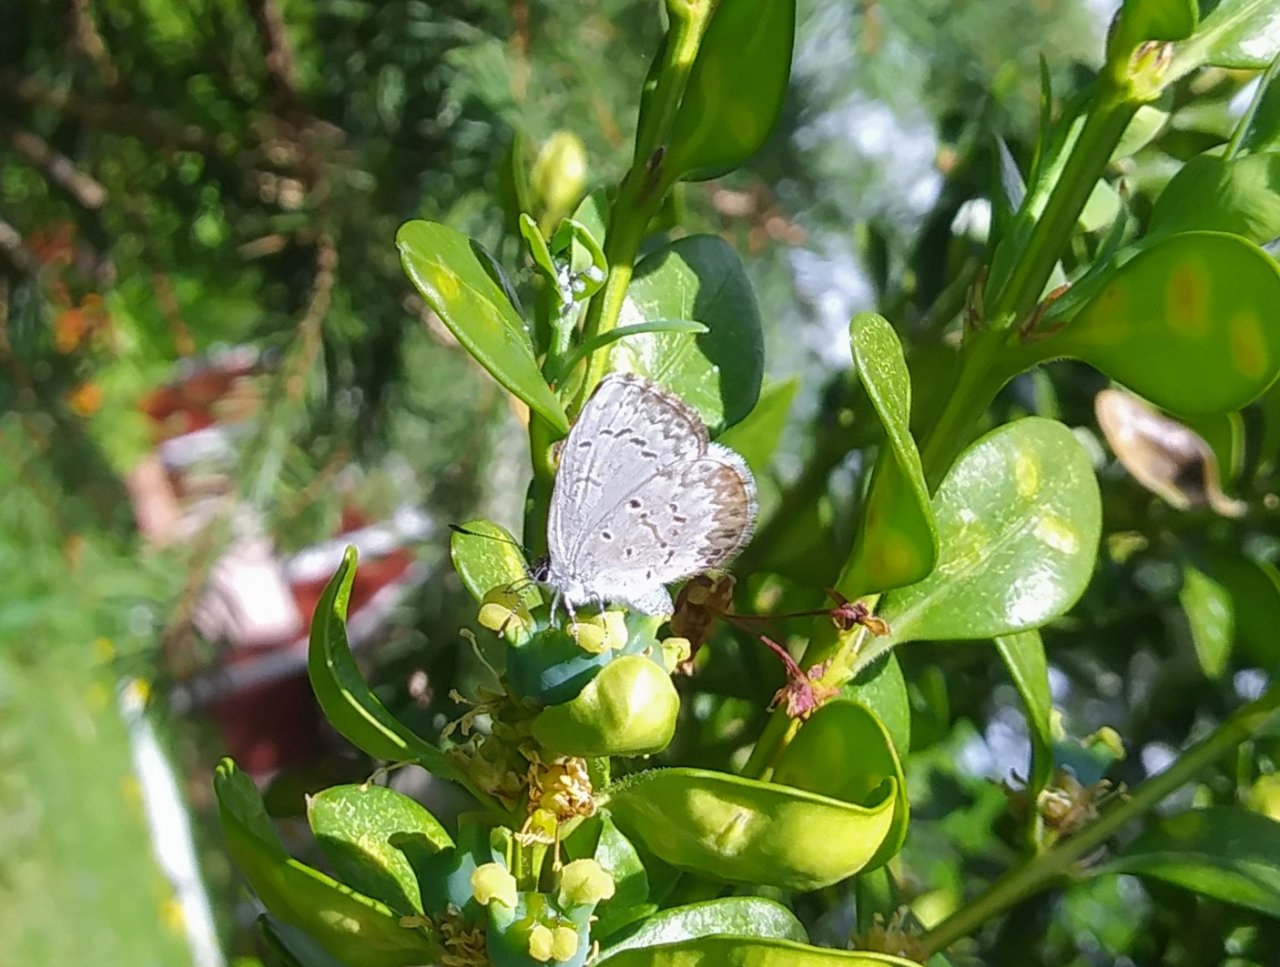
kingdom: Animalia
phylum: Arthropoda
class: Insecta
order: Lepidoptera
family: Lycaenidae
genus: Celastrina
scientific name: Celastrina lucia
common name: Northern Spring Azure
